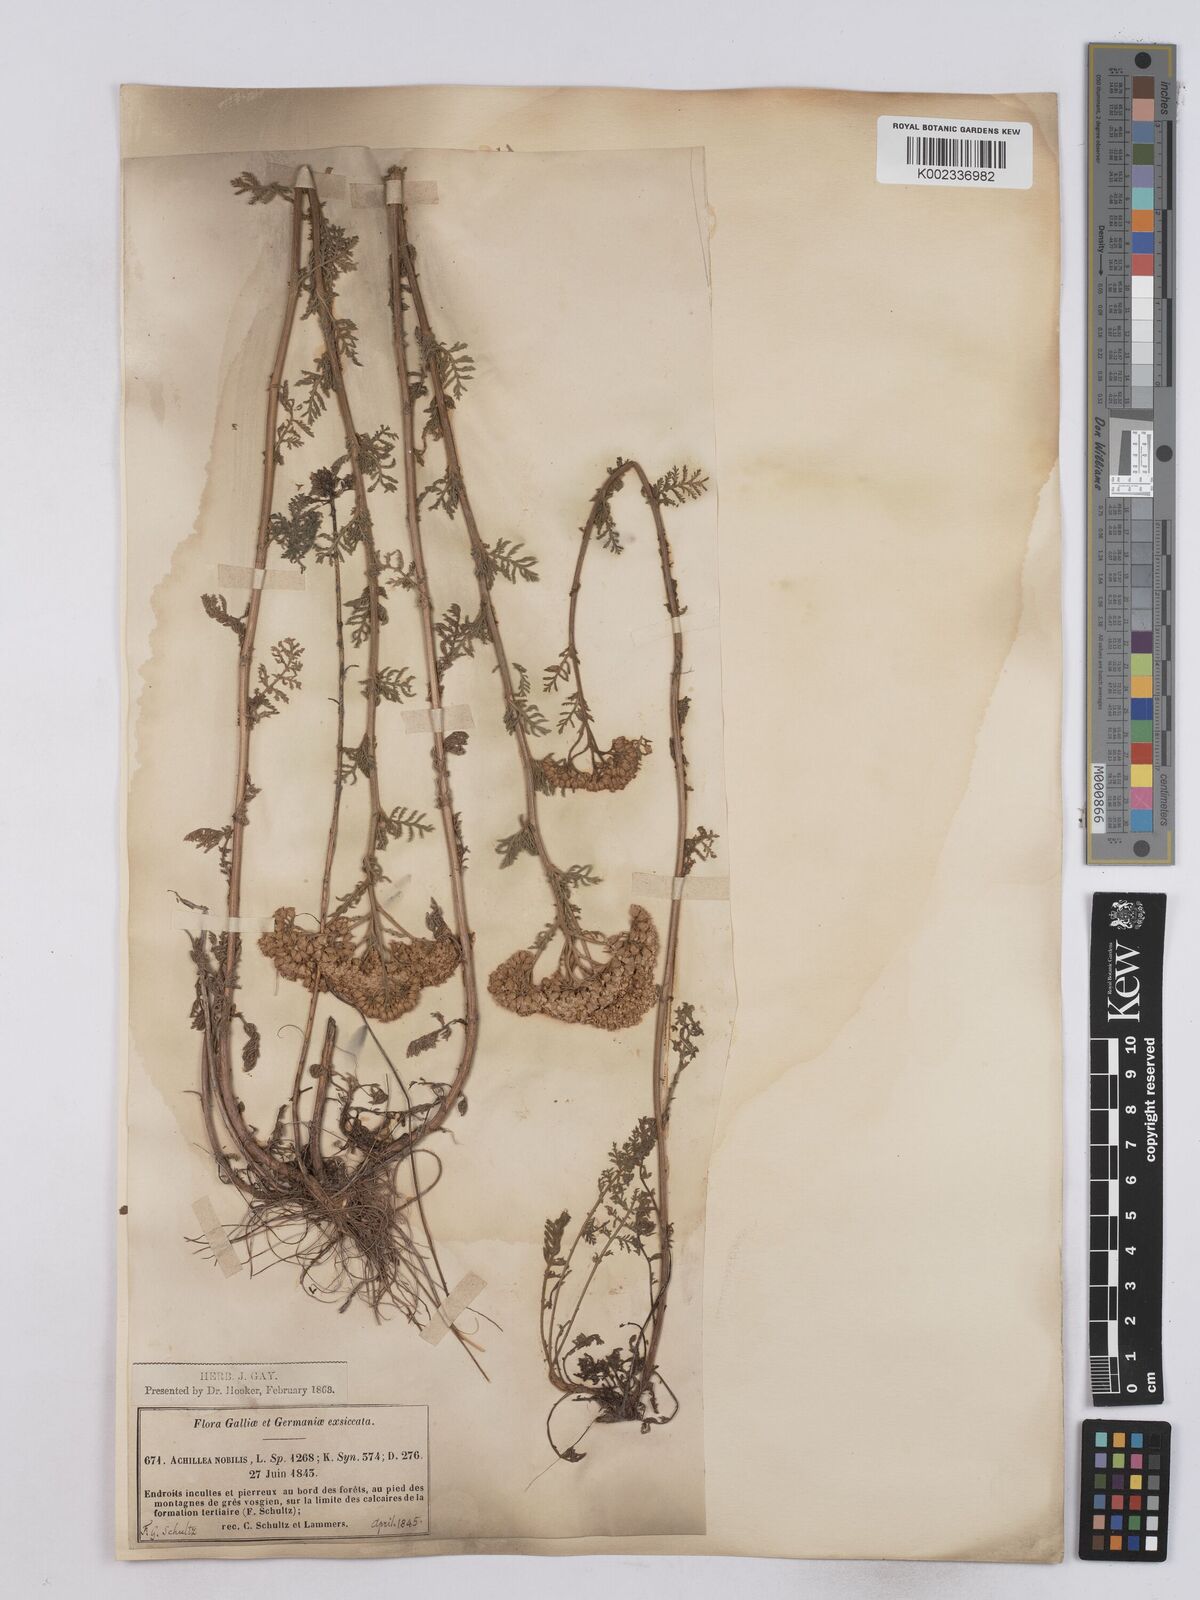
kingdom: Plantae
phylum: Tracheophyta
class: Magnoliopsida
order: Asterales
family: Asteraceae
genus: Achillea
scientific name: Achillea nobilis
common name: Noble yarrow
